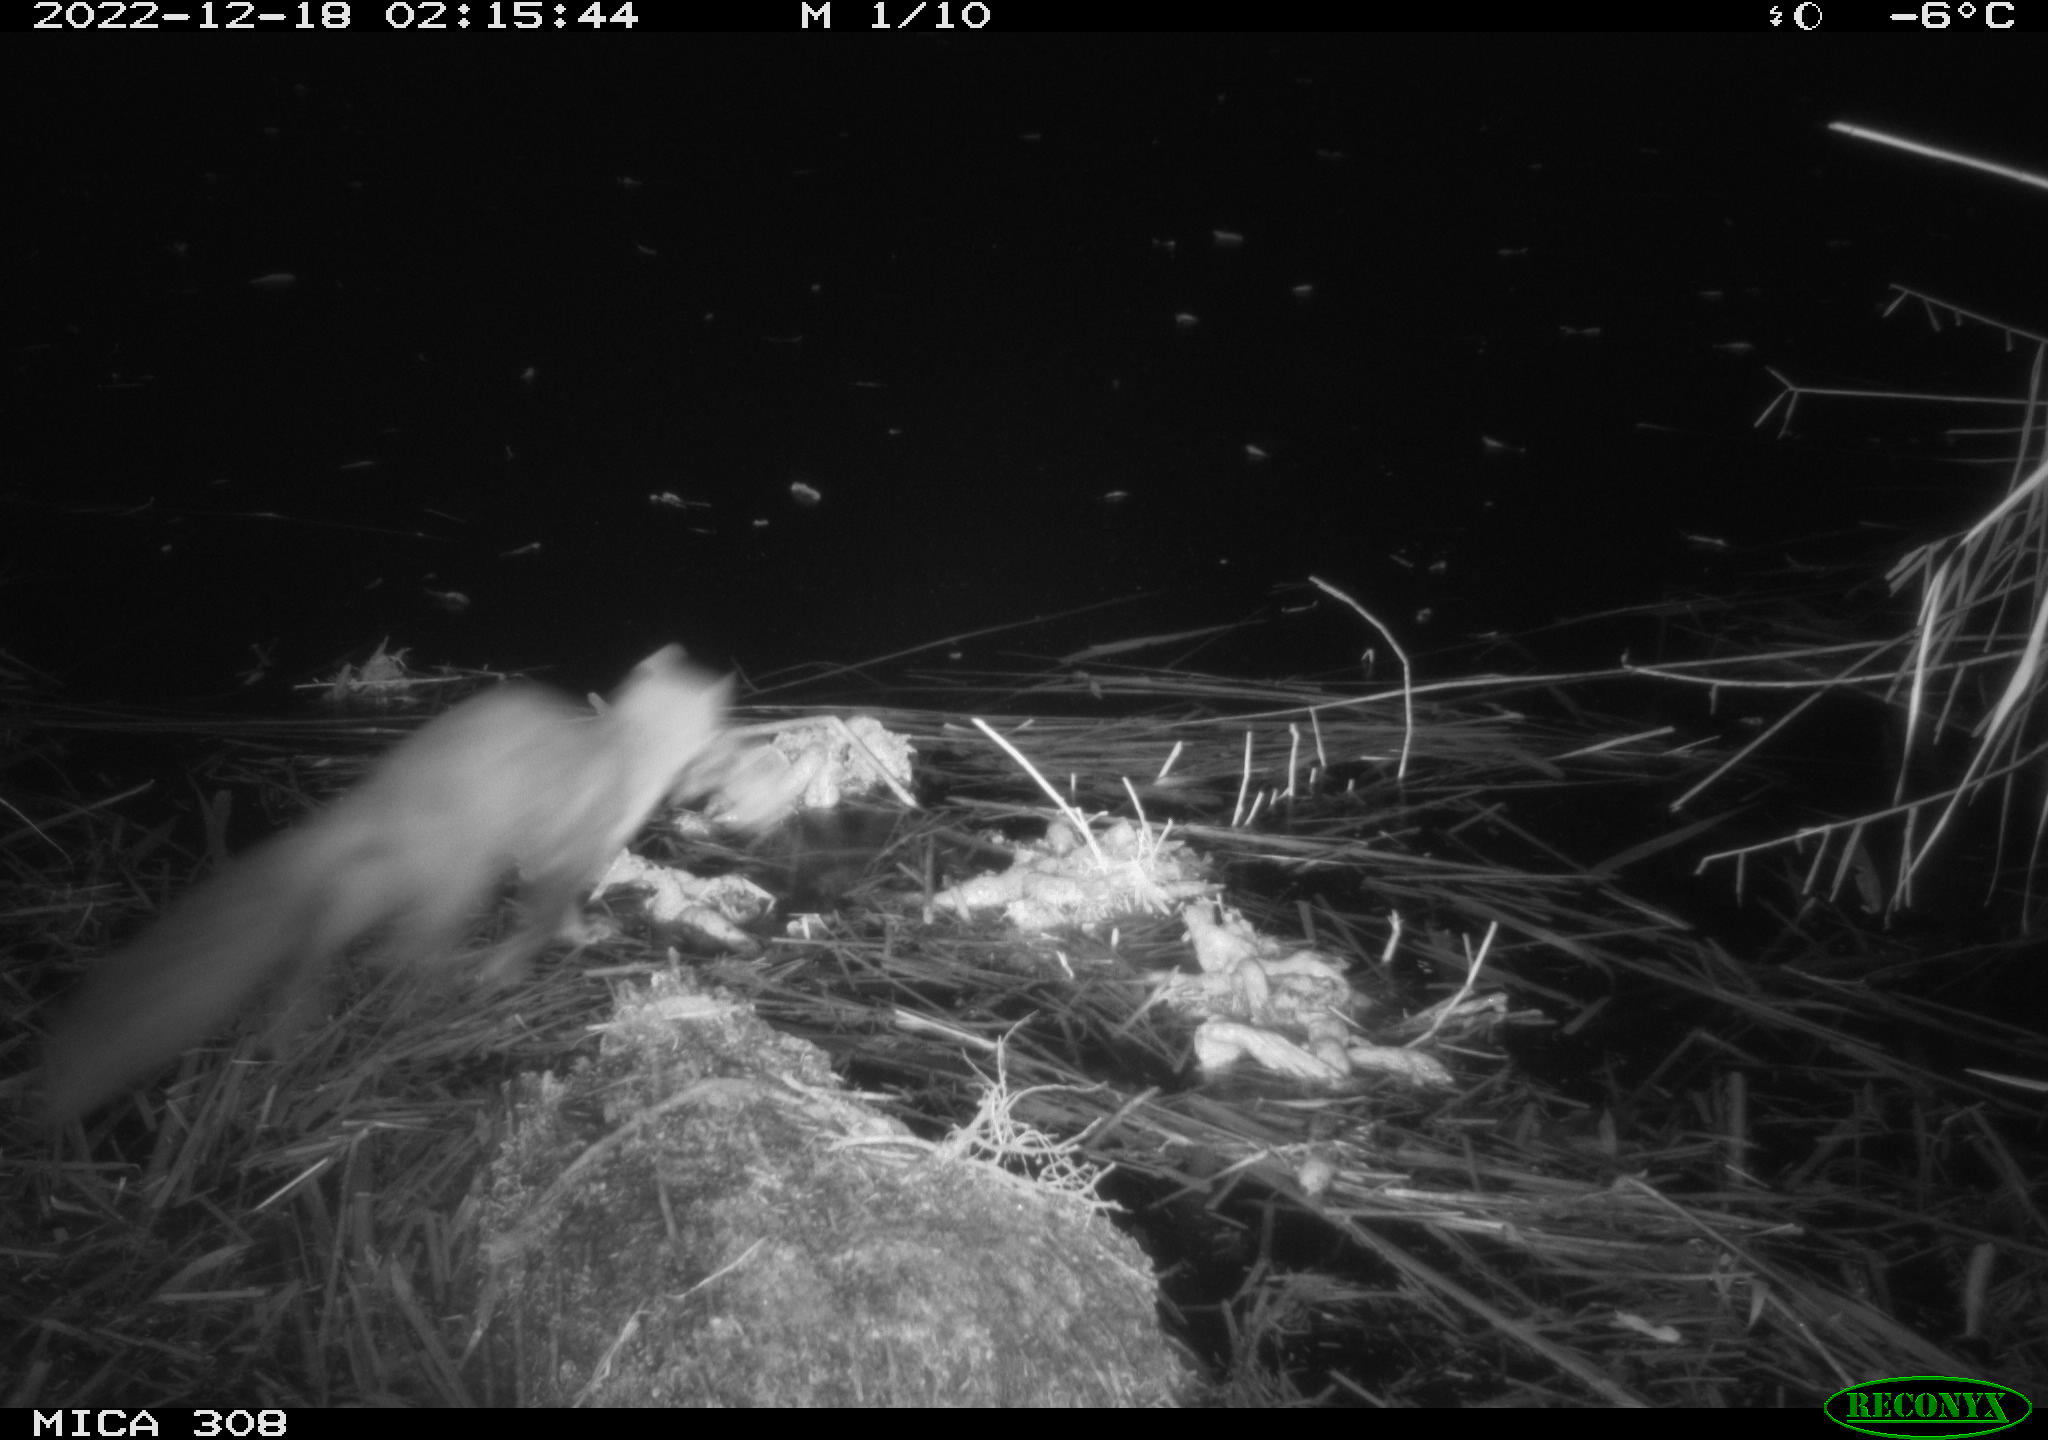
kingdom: Animalia
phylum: Chordata
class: Mammalia
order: Carnivora
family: Mustelidae
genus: Martes
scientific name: Martes foina
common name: Beech marten
